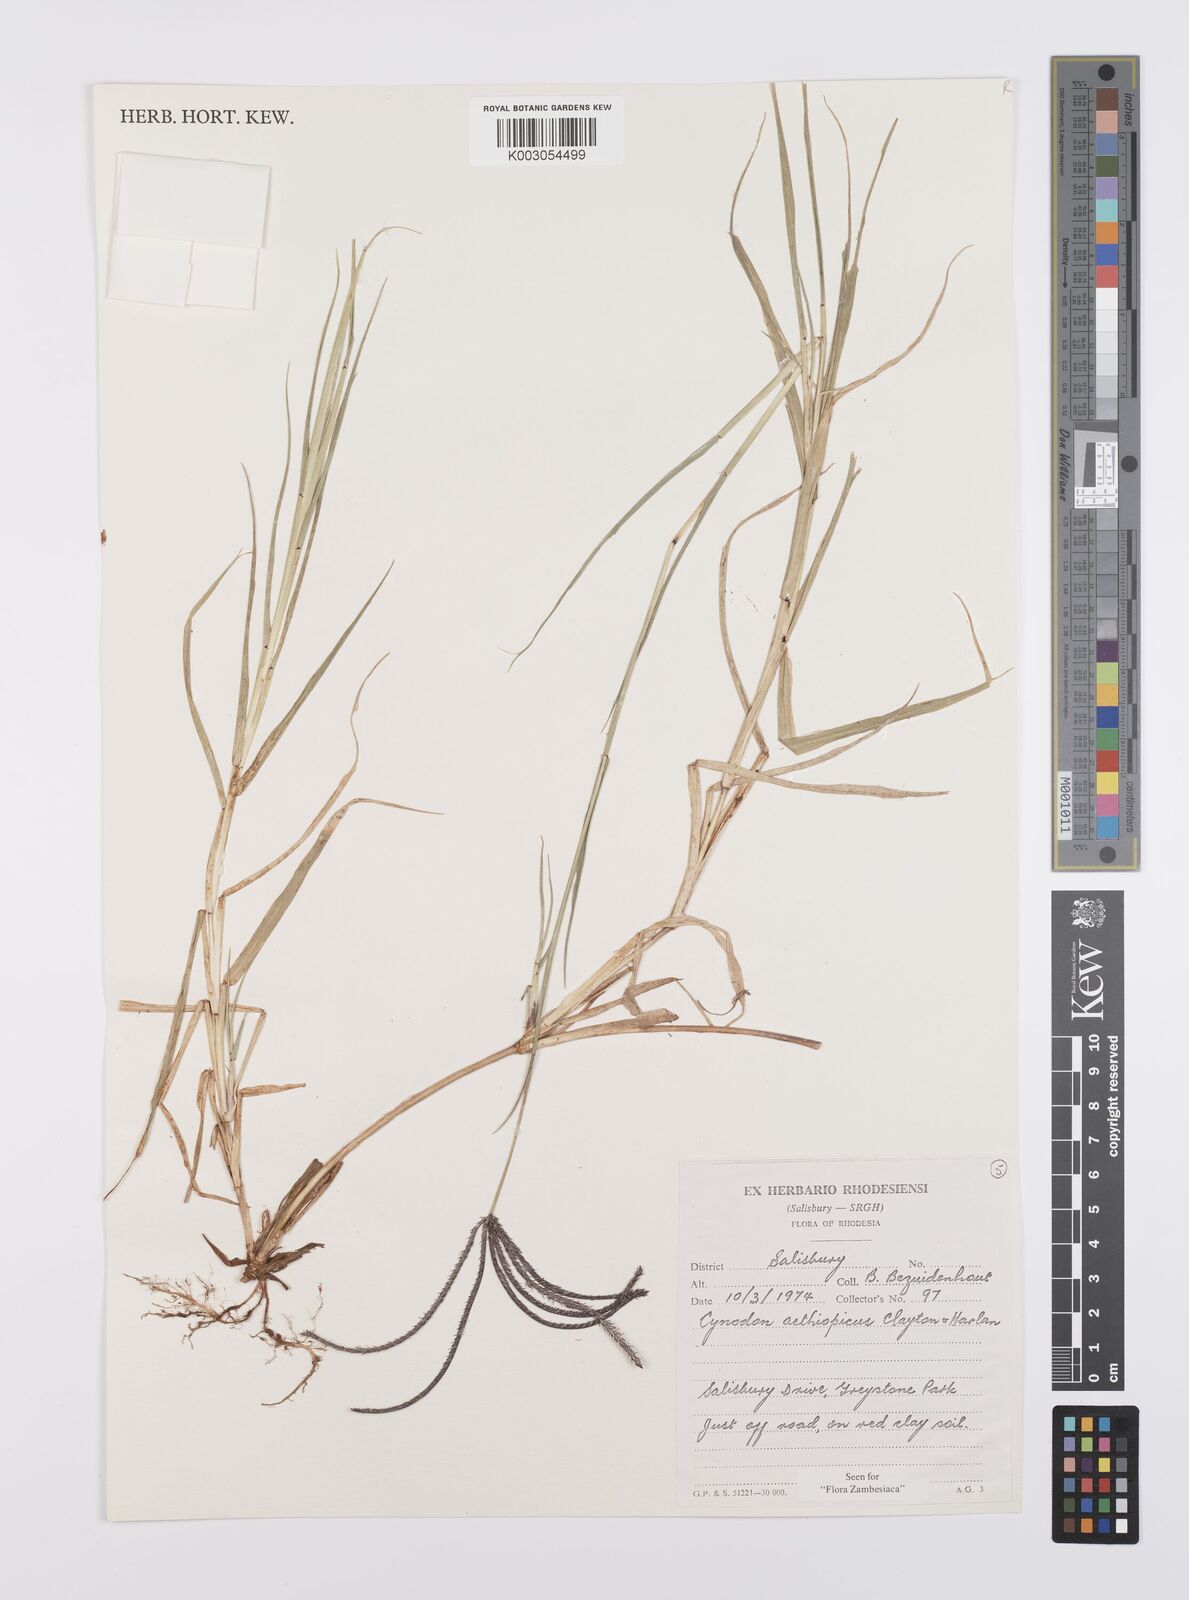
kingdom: Plantae
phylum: Tracheophyta
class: Liliopsida
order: Poales
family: Poaceae
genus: Cynodon
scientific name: Cynodon aethiopicus
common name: Ethiopian dogstooth grass
